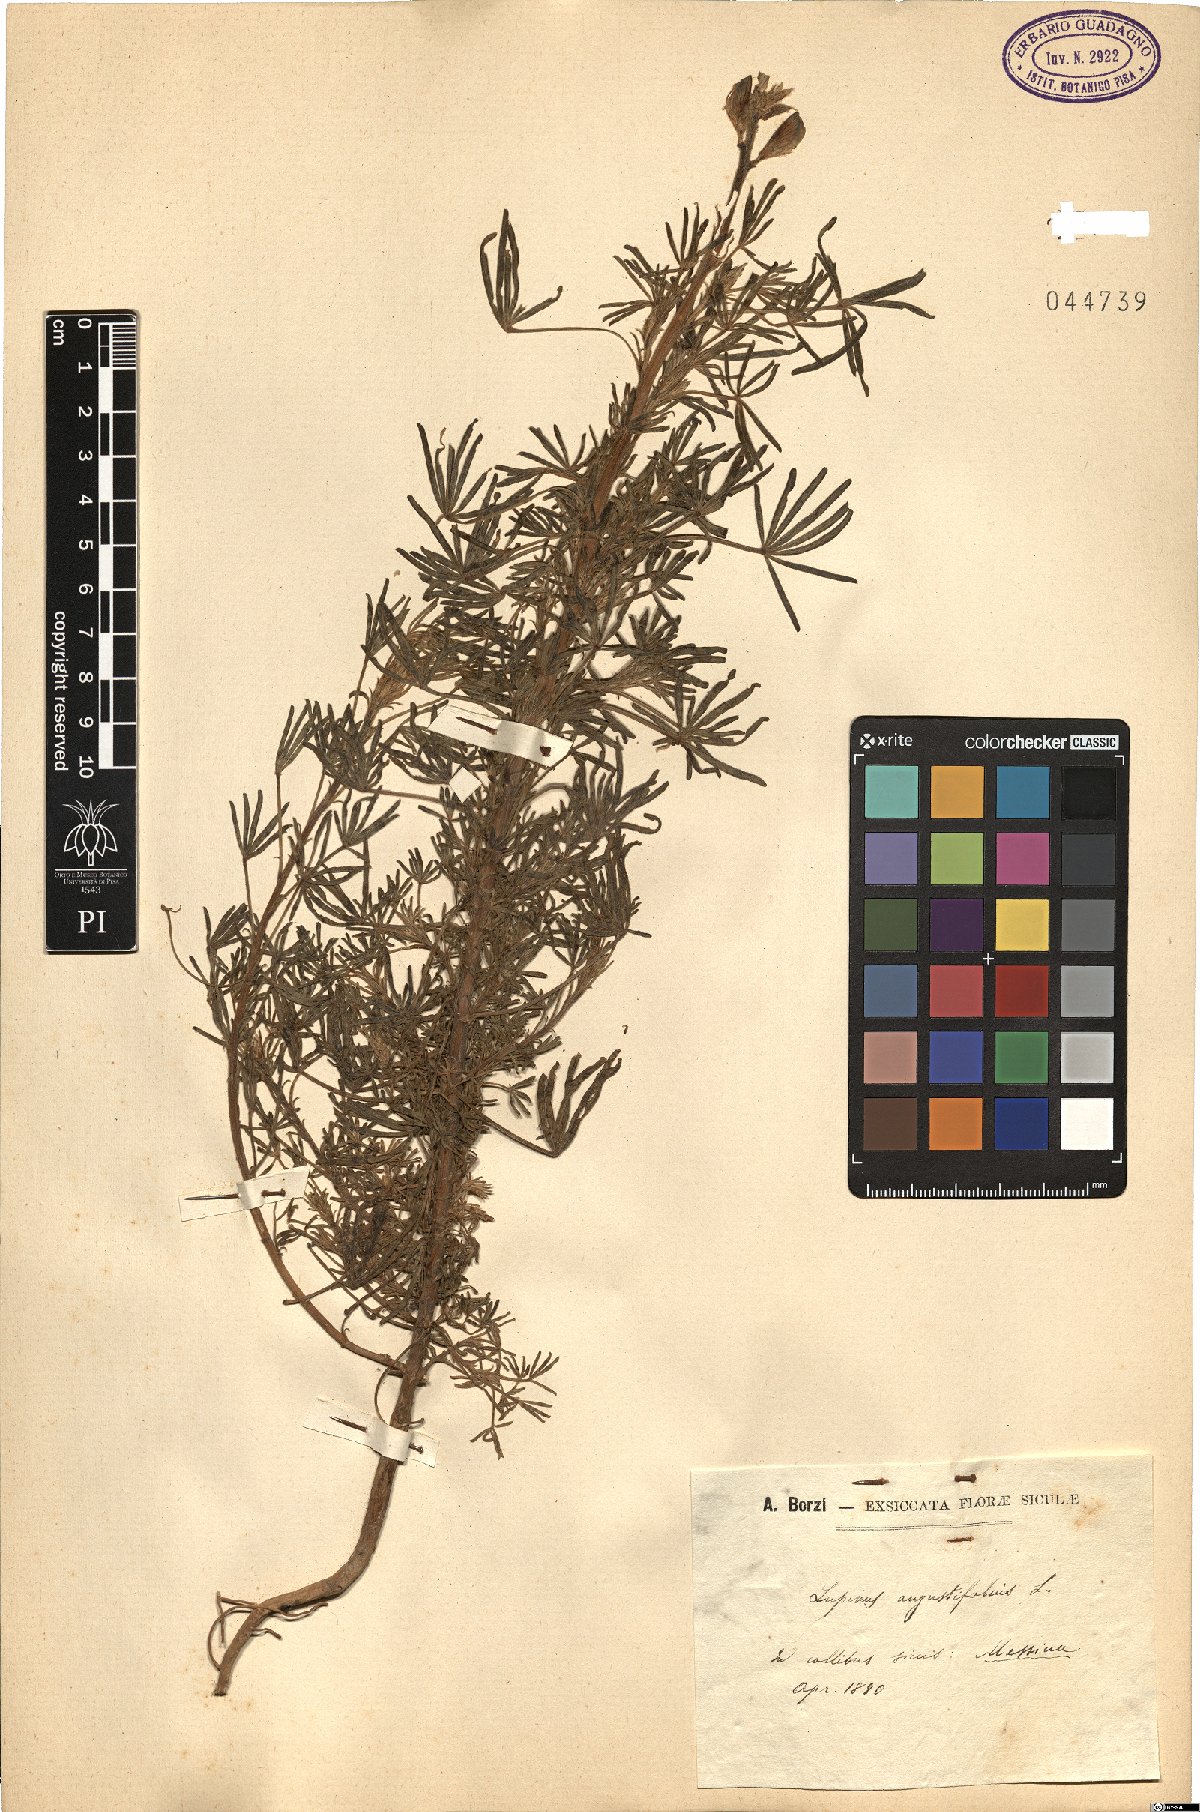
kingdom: Plantae
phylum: Tracheophyta
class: Magnoliopsida
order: Fabales
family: Fabaceae
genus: Lupinus
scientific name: Lupinus angustifolius
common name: Narrow-leaved lupin
